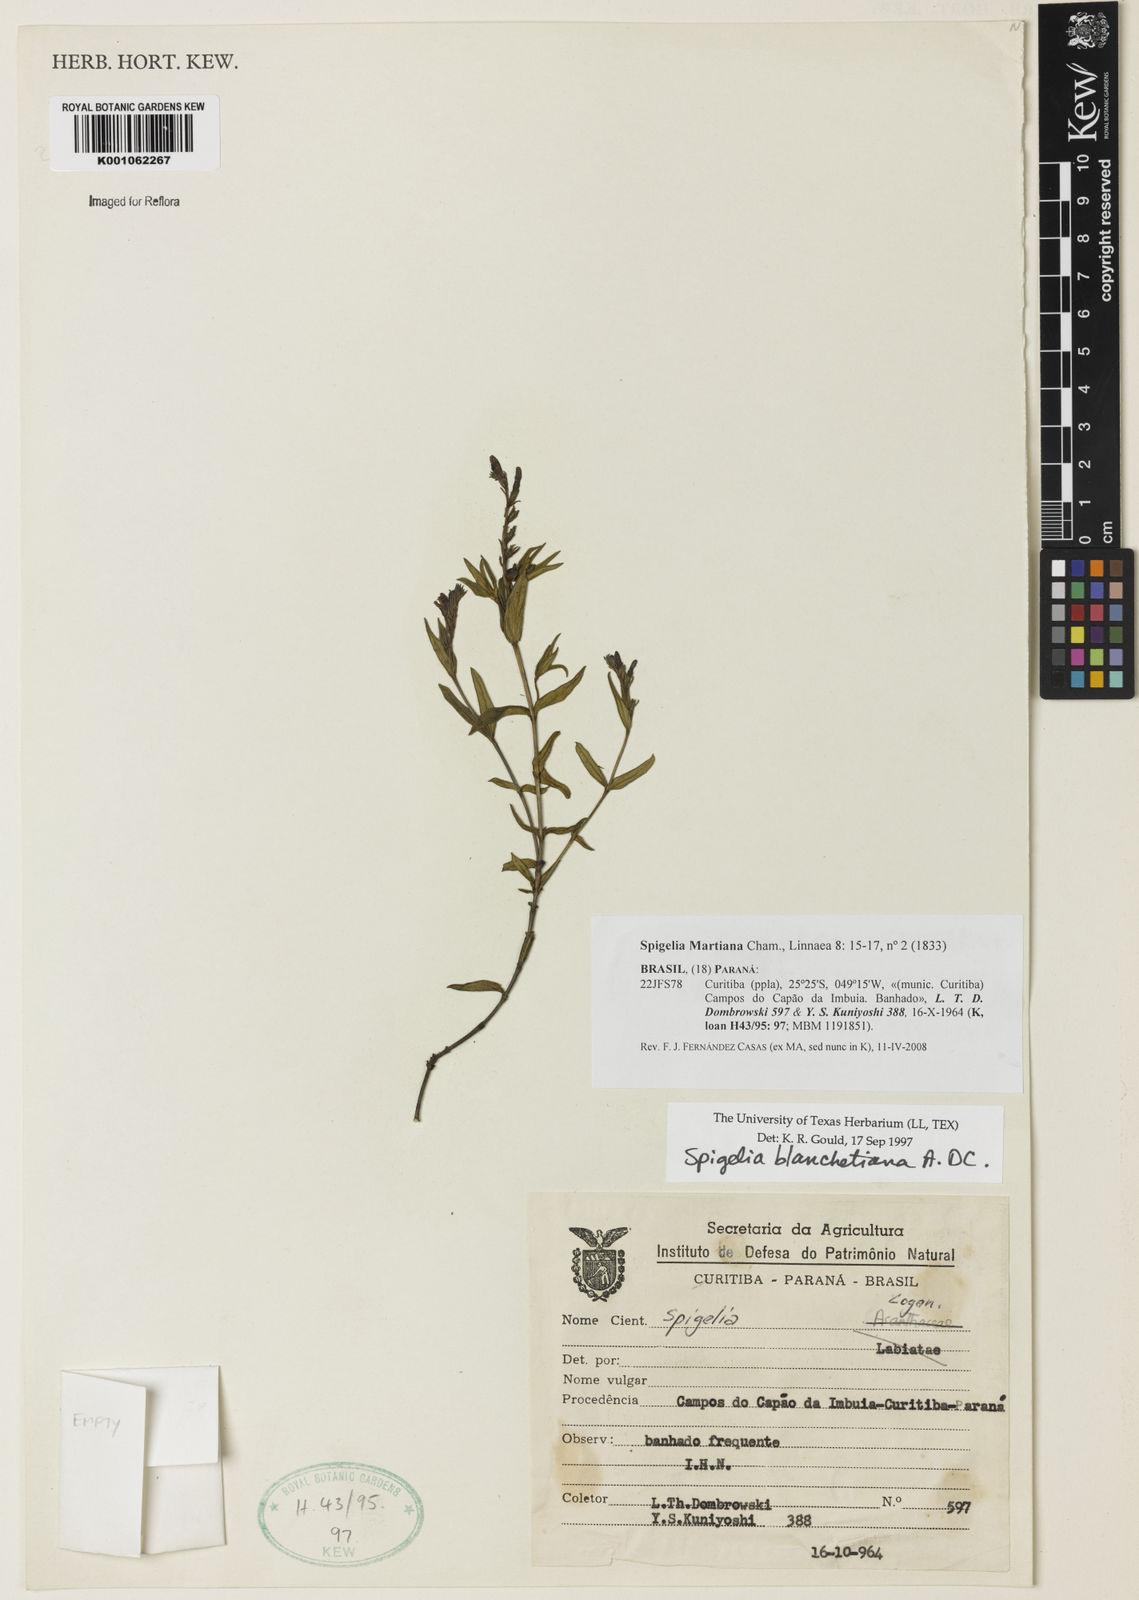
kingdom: Plantae
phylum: Tracheophyta
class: Magnoliopsida
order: Gentianales
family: Loganiaceae
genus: Spigelia
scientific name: Spigelia martiana
